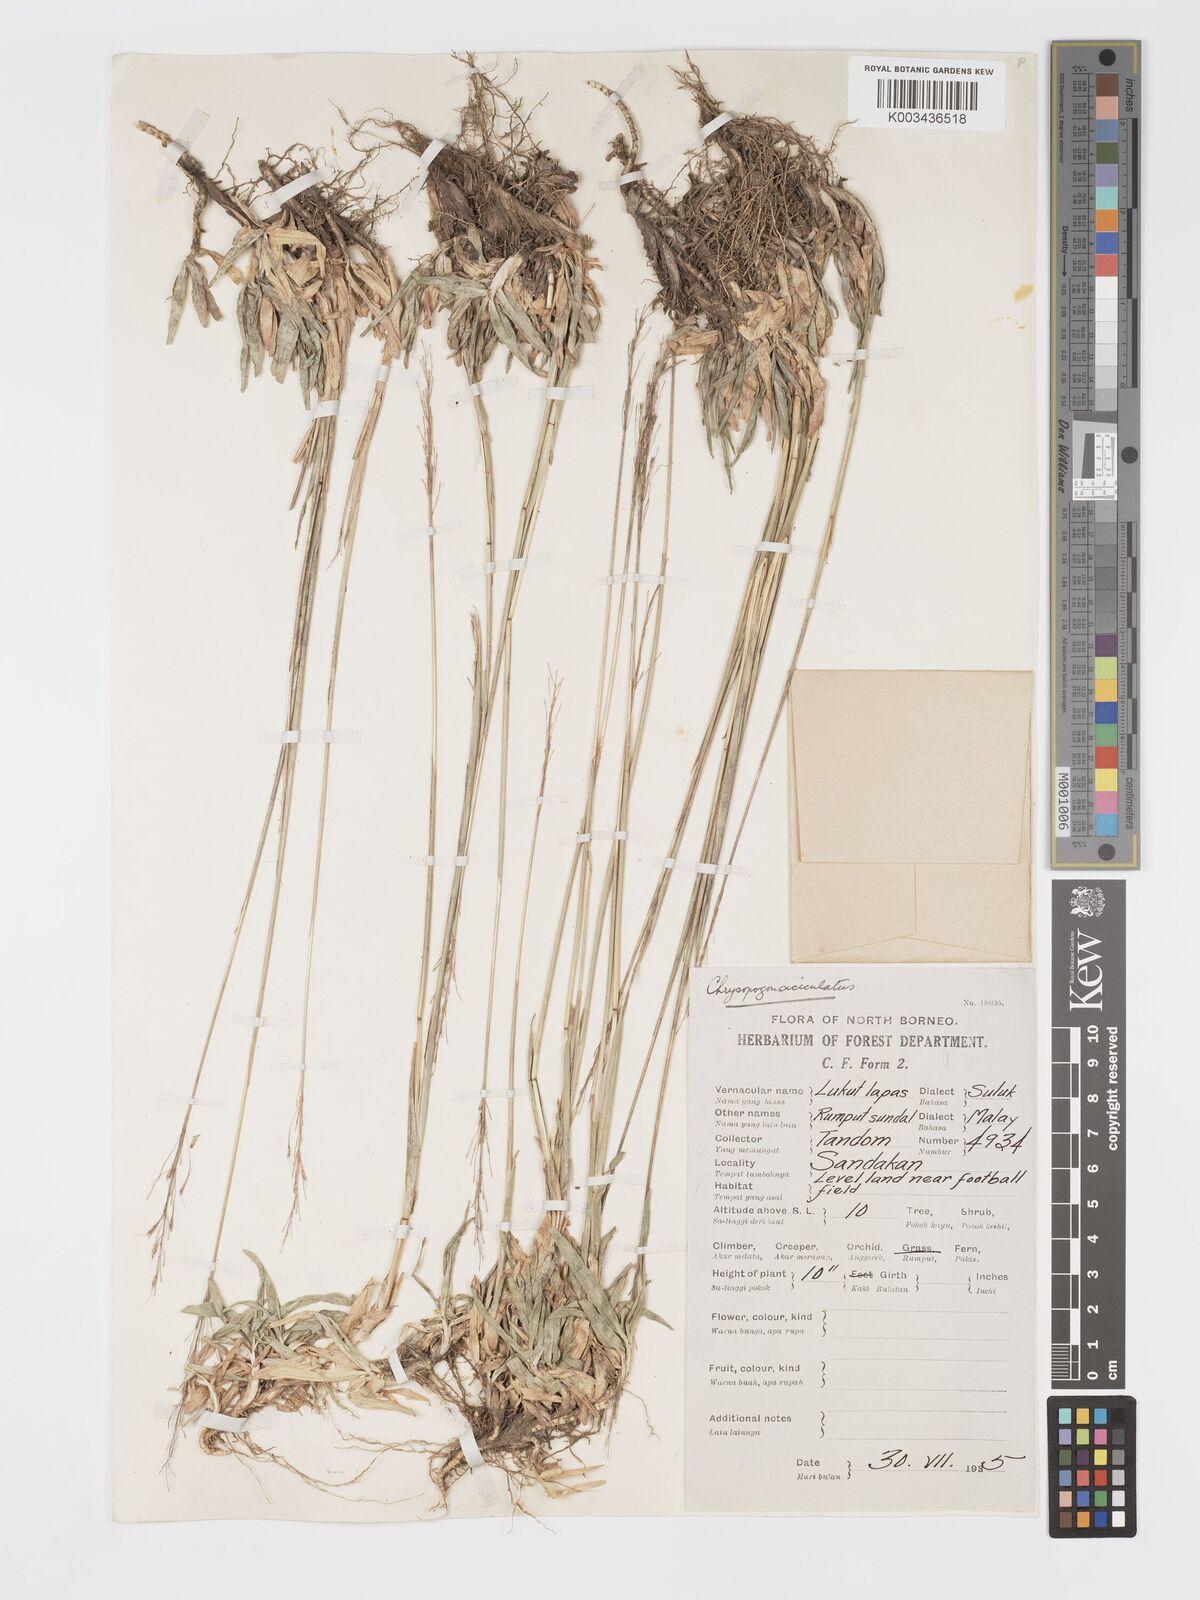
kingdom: Plantae
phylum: Tracheophyta
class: Liliopsida
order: Poales
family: Poaceae
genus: Chrysopogon
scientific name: Chrysopogon aciculatus
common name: Pilipiliula
